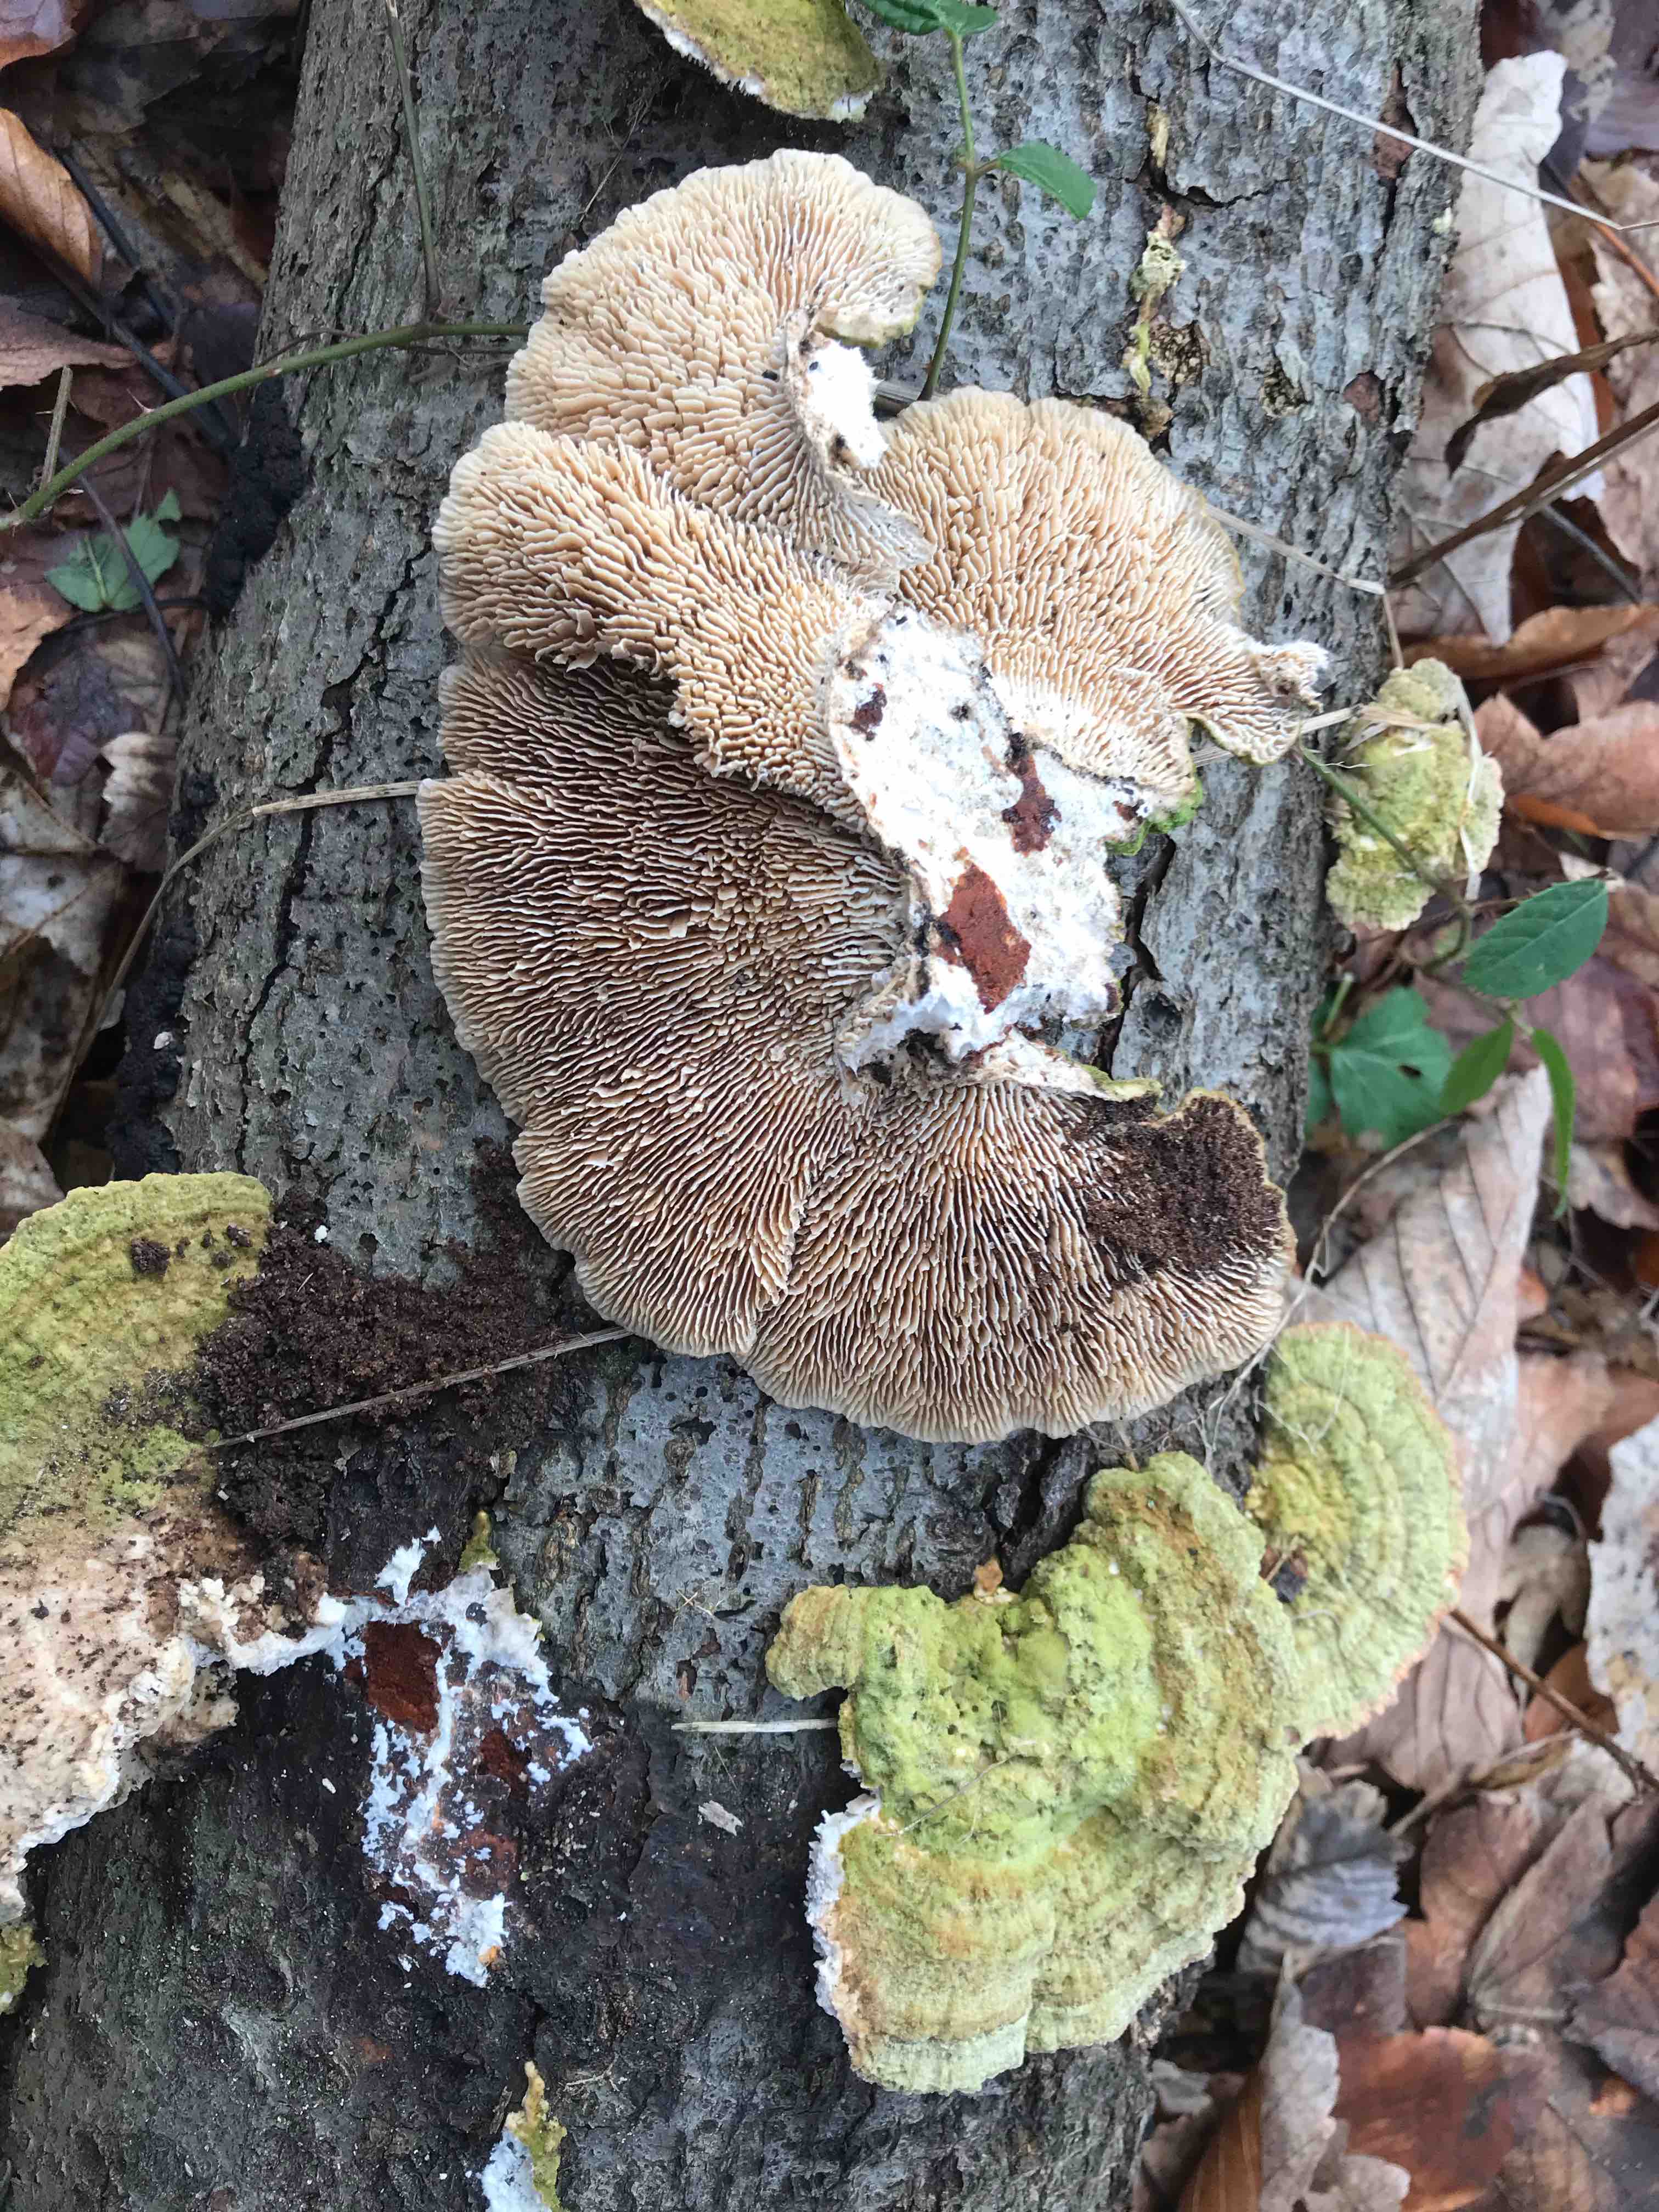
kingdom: Fungi
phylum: Basidiomycota
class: Agaricomycetes
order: Polyporales
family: Polyporaceae
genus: Lenzites
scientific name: Lenzites betulinus
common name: birke-læderporesvamp
